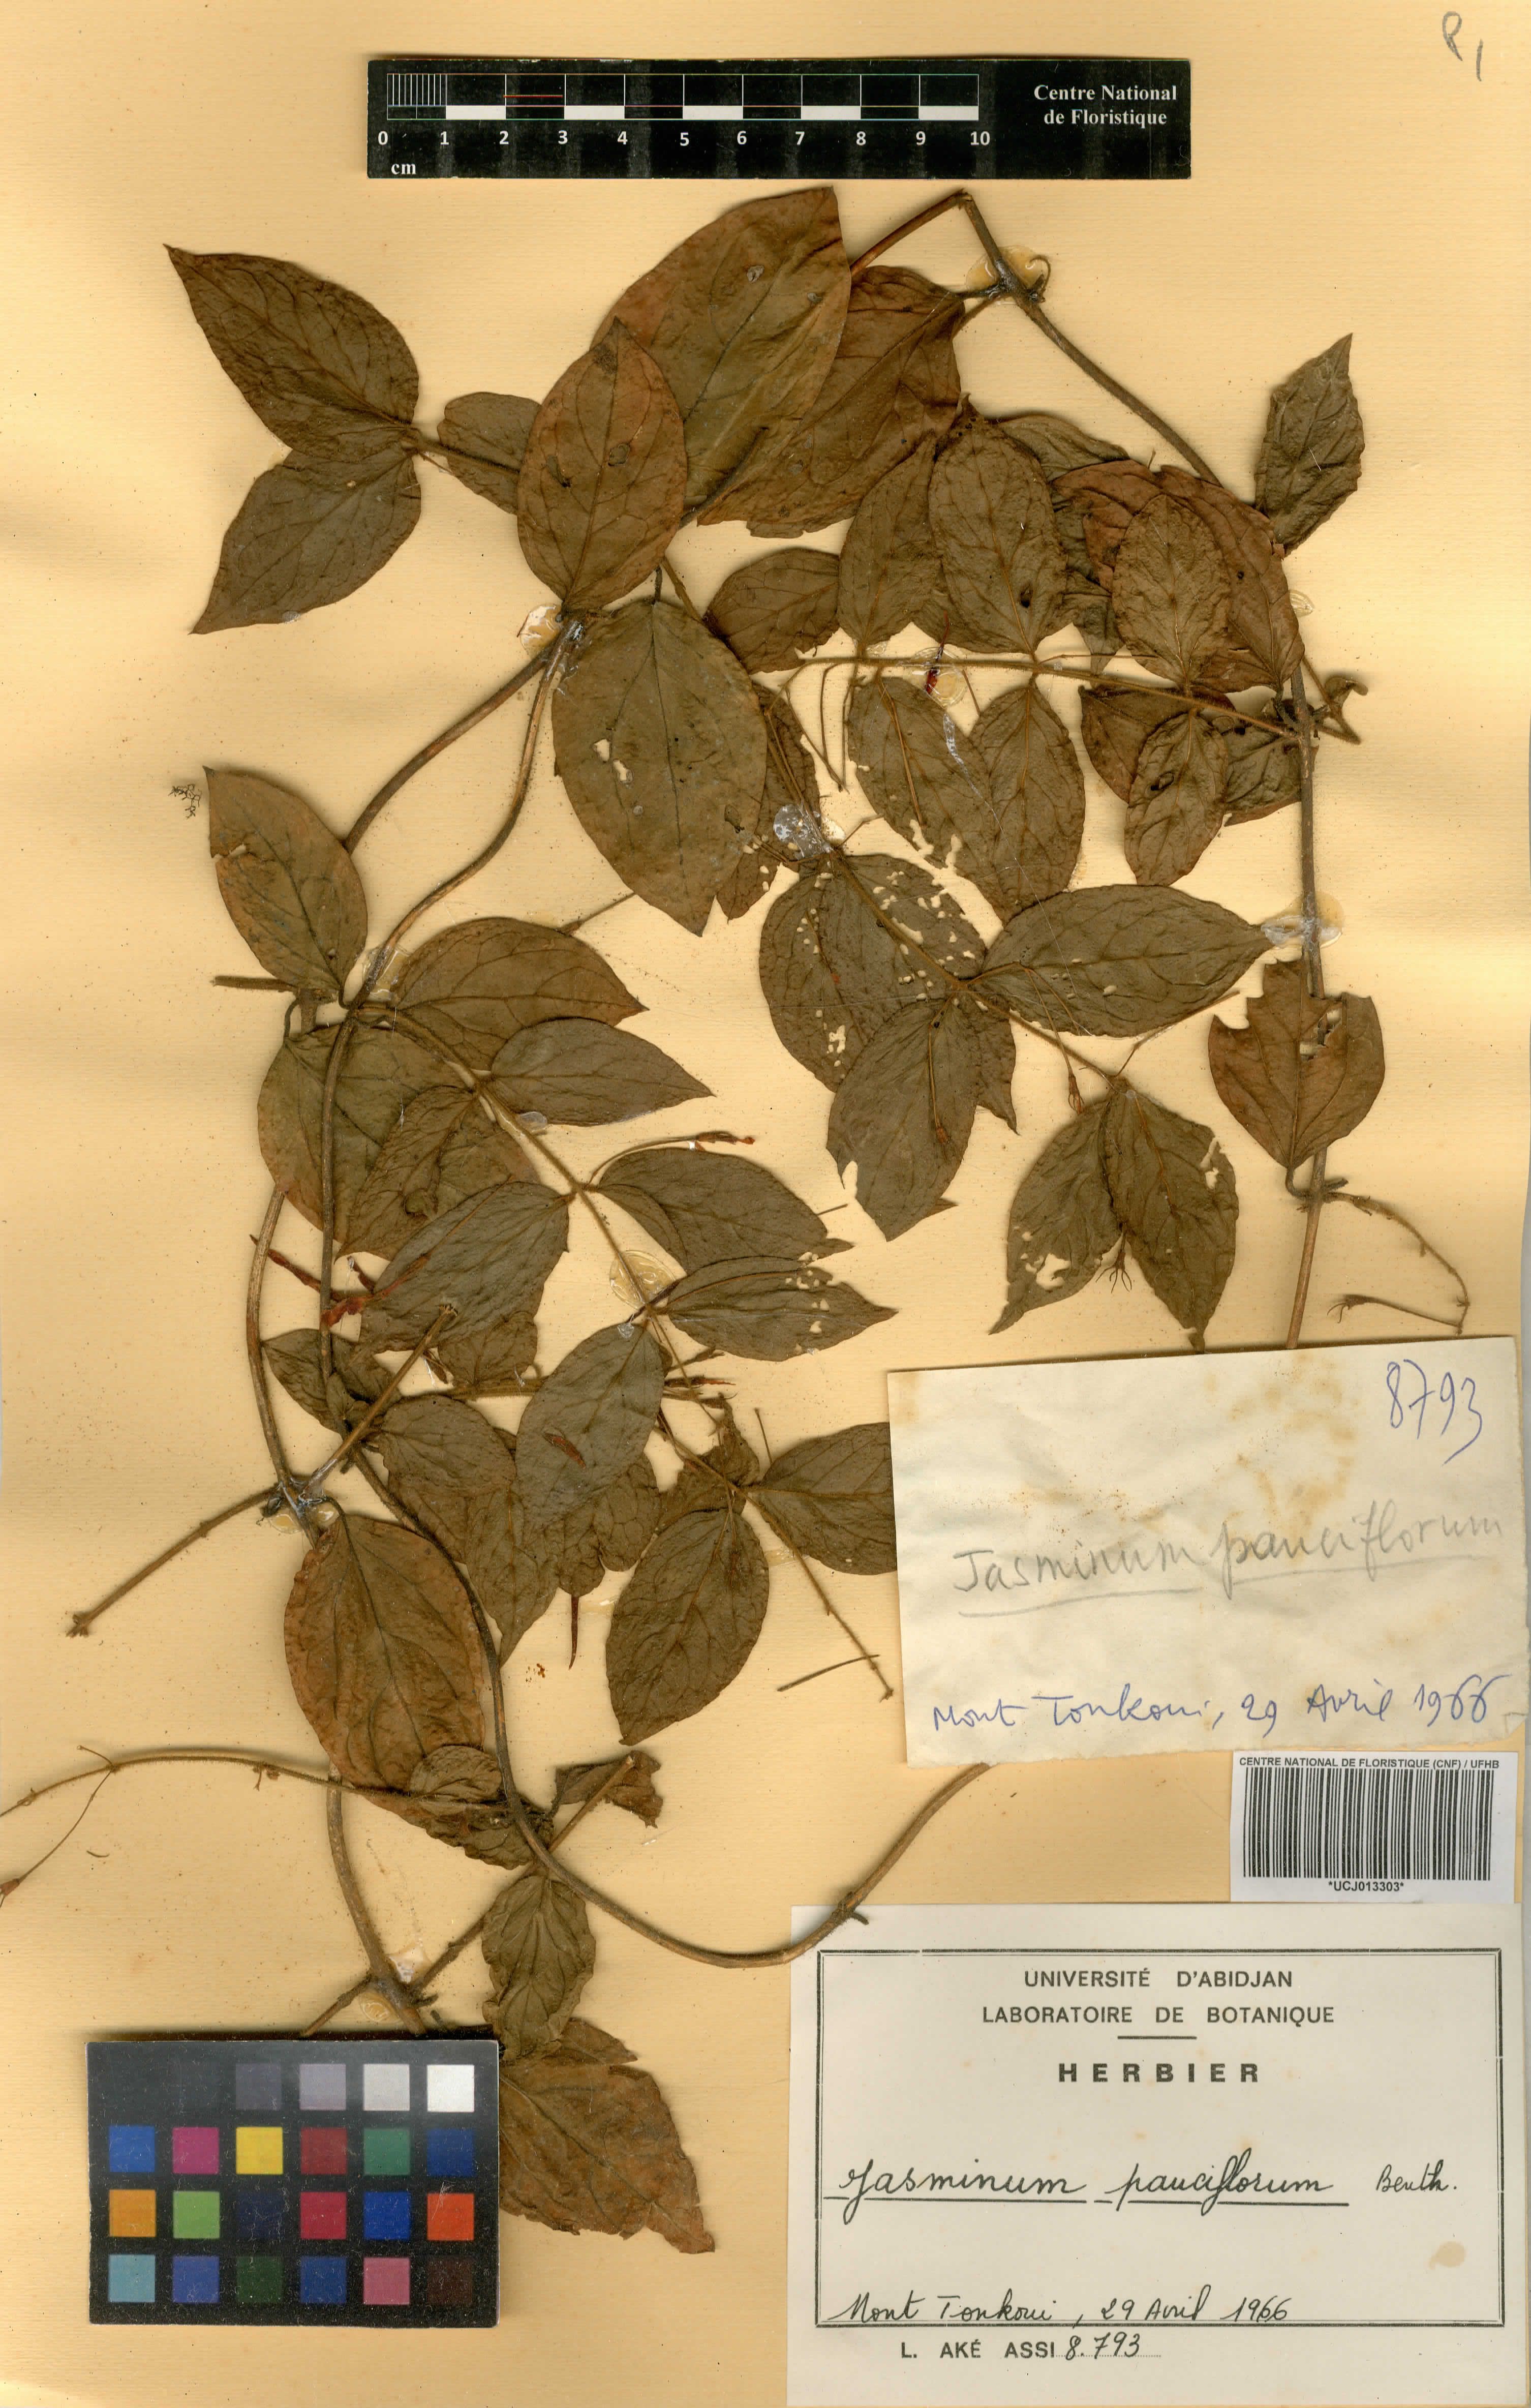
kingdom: Plantae
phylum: Tracheophyta
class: Magnoliopsida
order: Lamiales
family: Oleaceae
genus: Jasminum
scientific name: Jasminum pauciflorum
